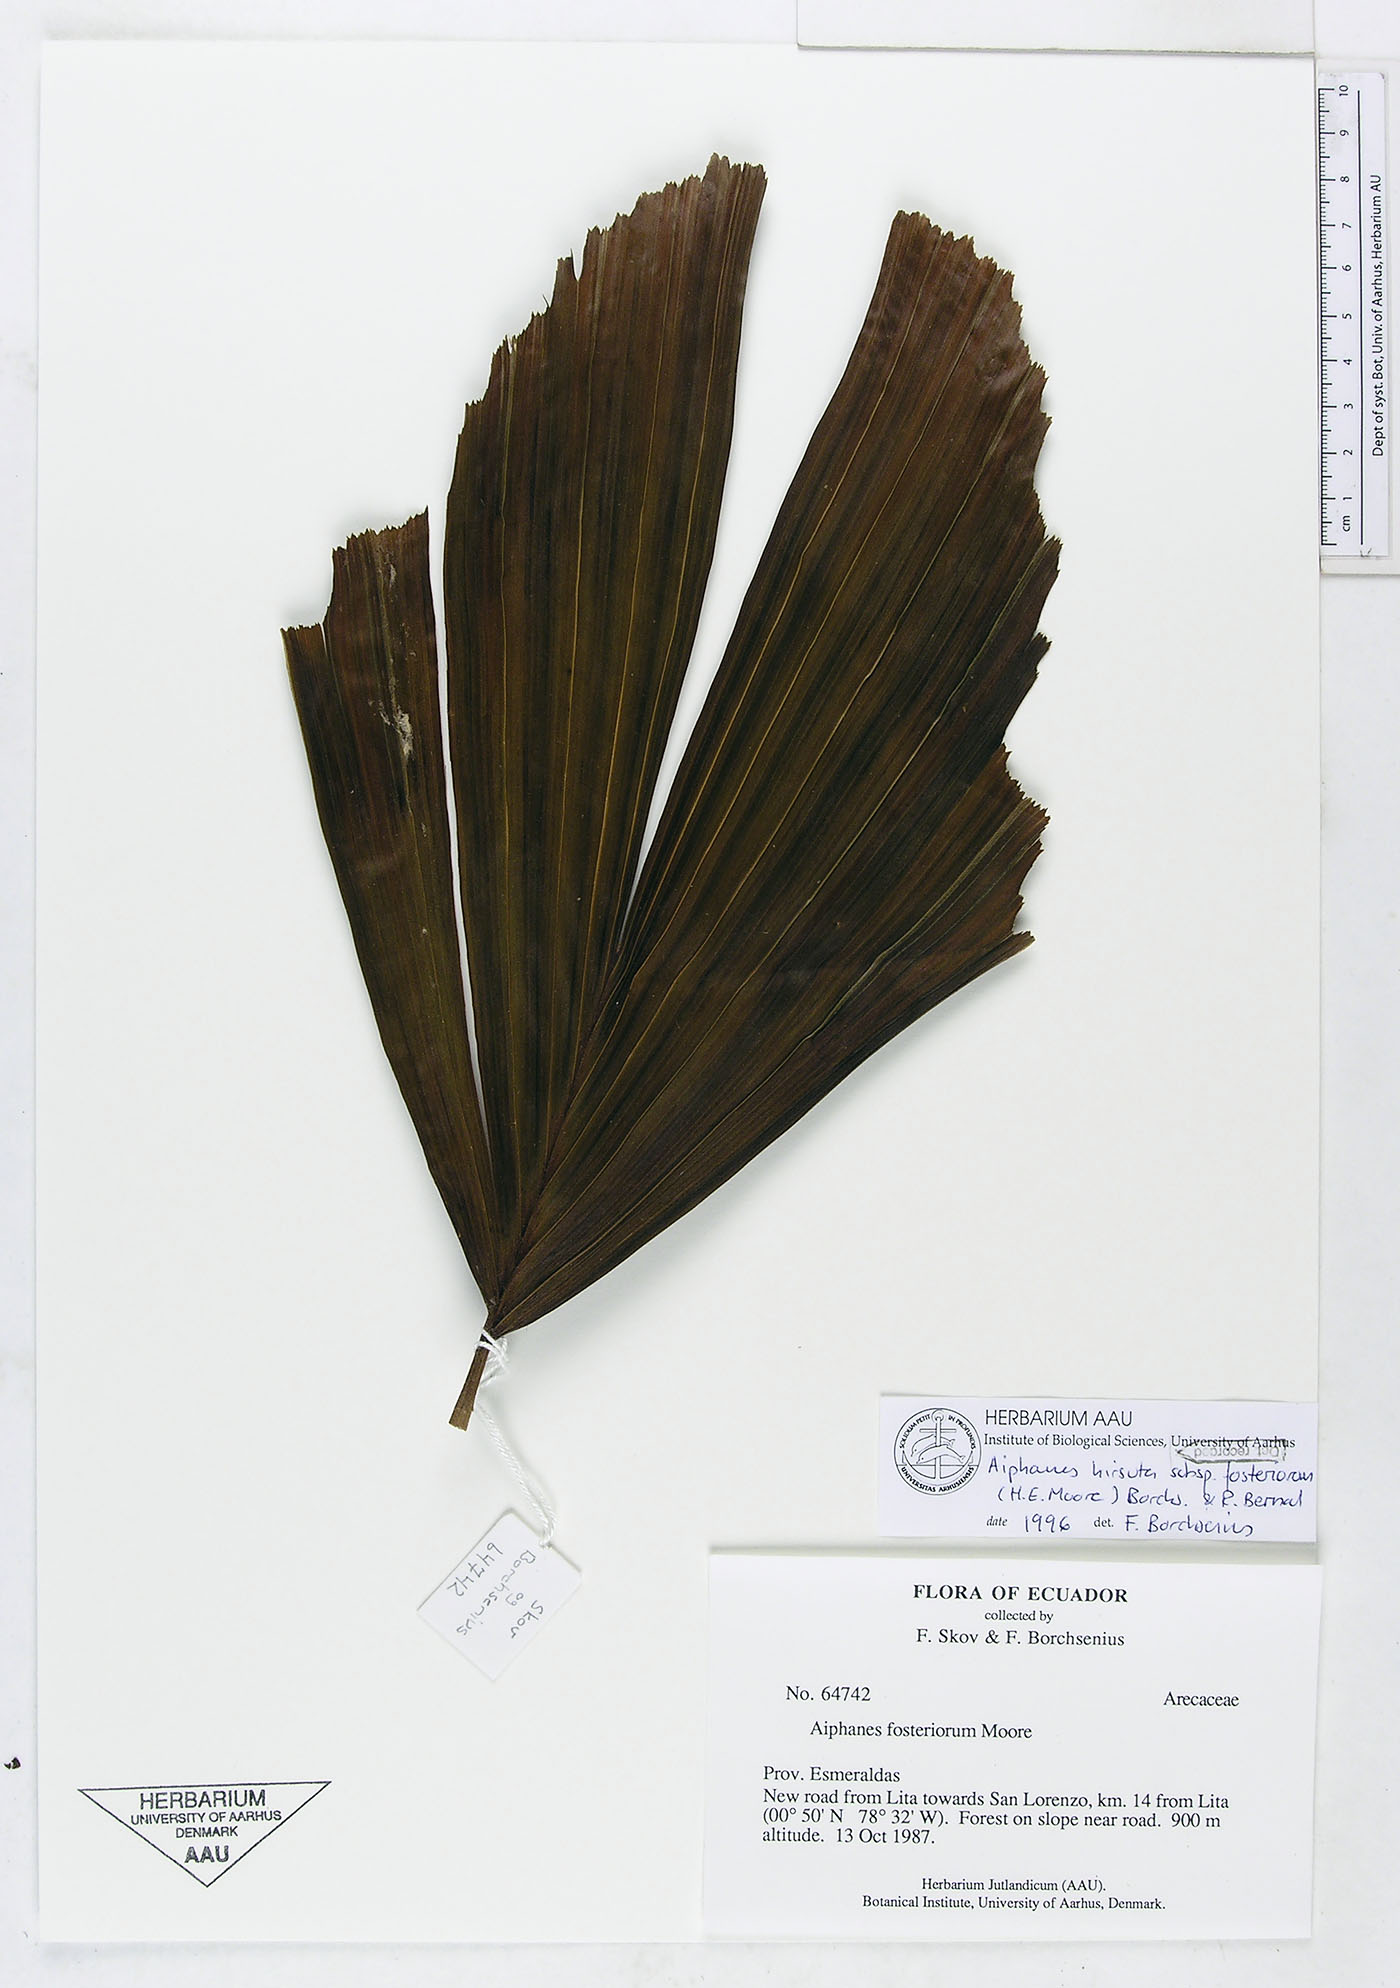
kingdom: Plantae
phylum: Tracheophyta
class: Liliopsida
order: Arecales
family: Arecaceae
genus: Aiphanes
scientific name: Aiphanes hirsuta
